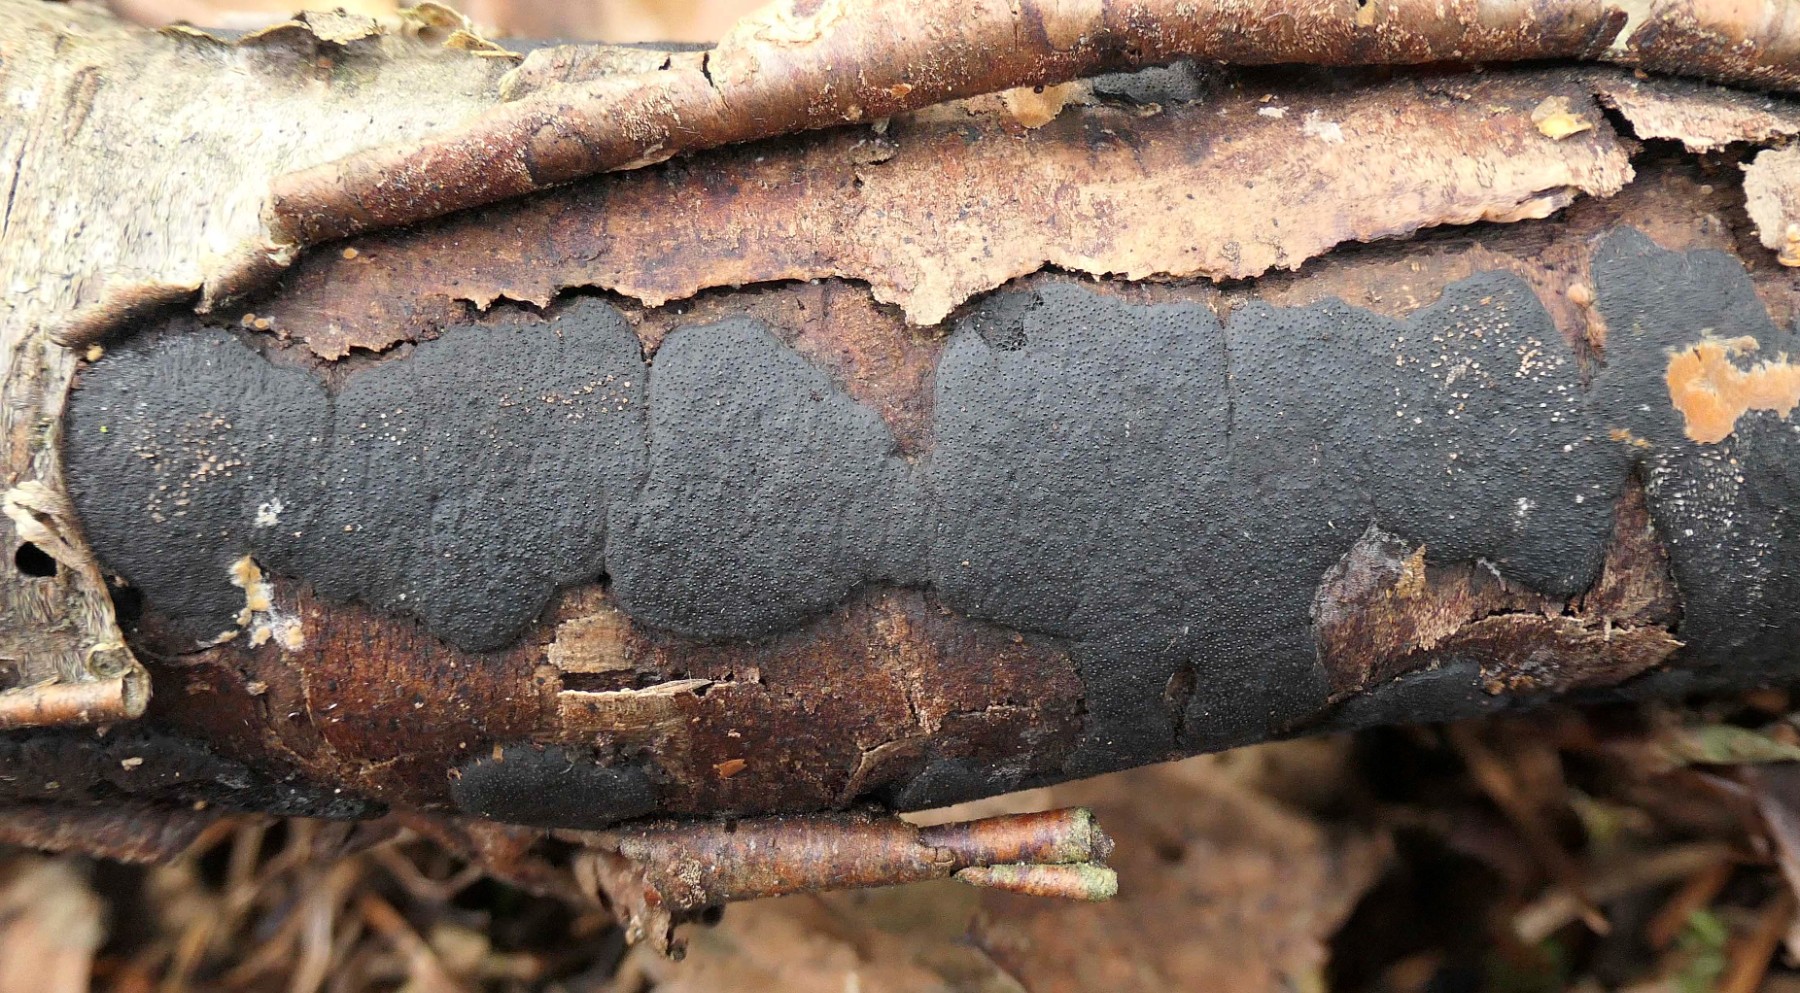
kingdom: Fungi
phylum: Ascomycota
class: Sordariomycetes
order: Xylariales
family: Diatrypaceae
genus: Diatrype
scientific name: Diatrype
